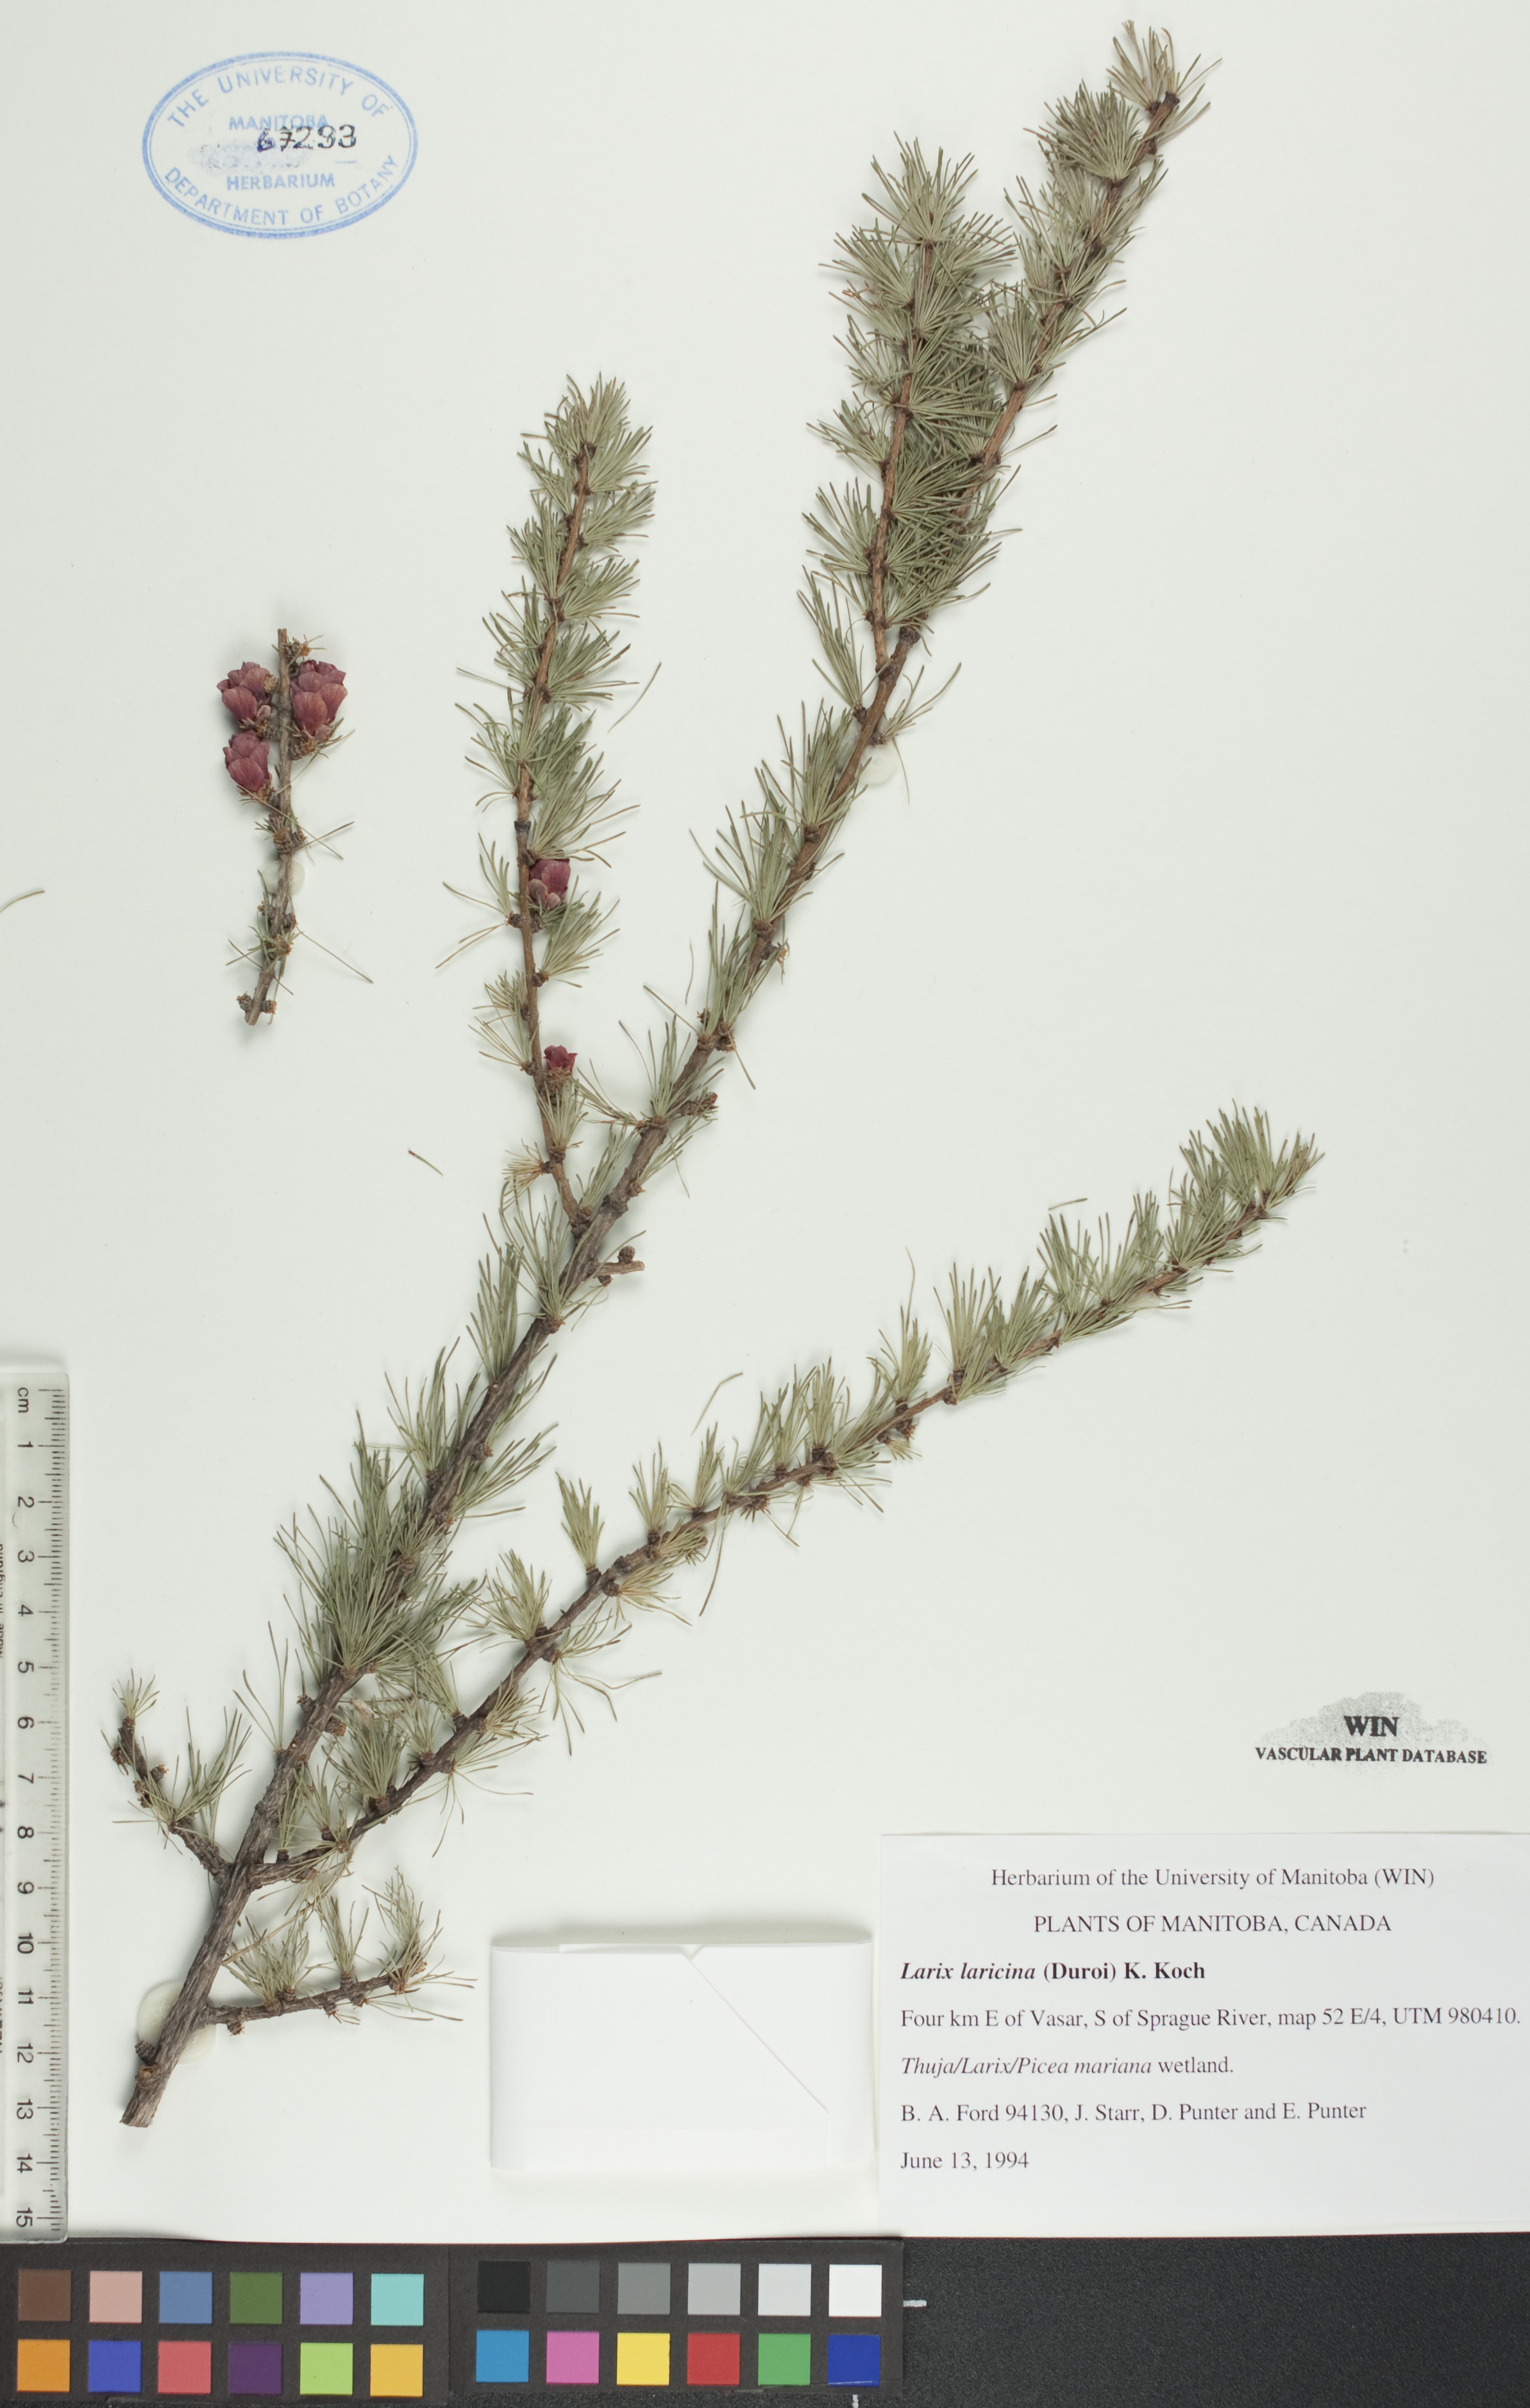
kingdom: Plantae
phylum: Tracheophyta
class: Pinopsida
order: Pinales
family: Pinaceae
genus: Larix
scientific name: Larix laricina
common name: American larch
